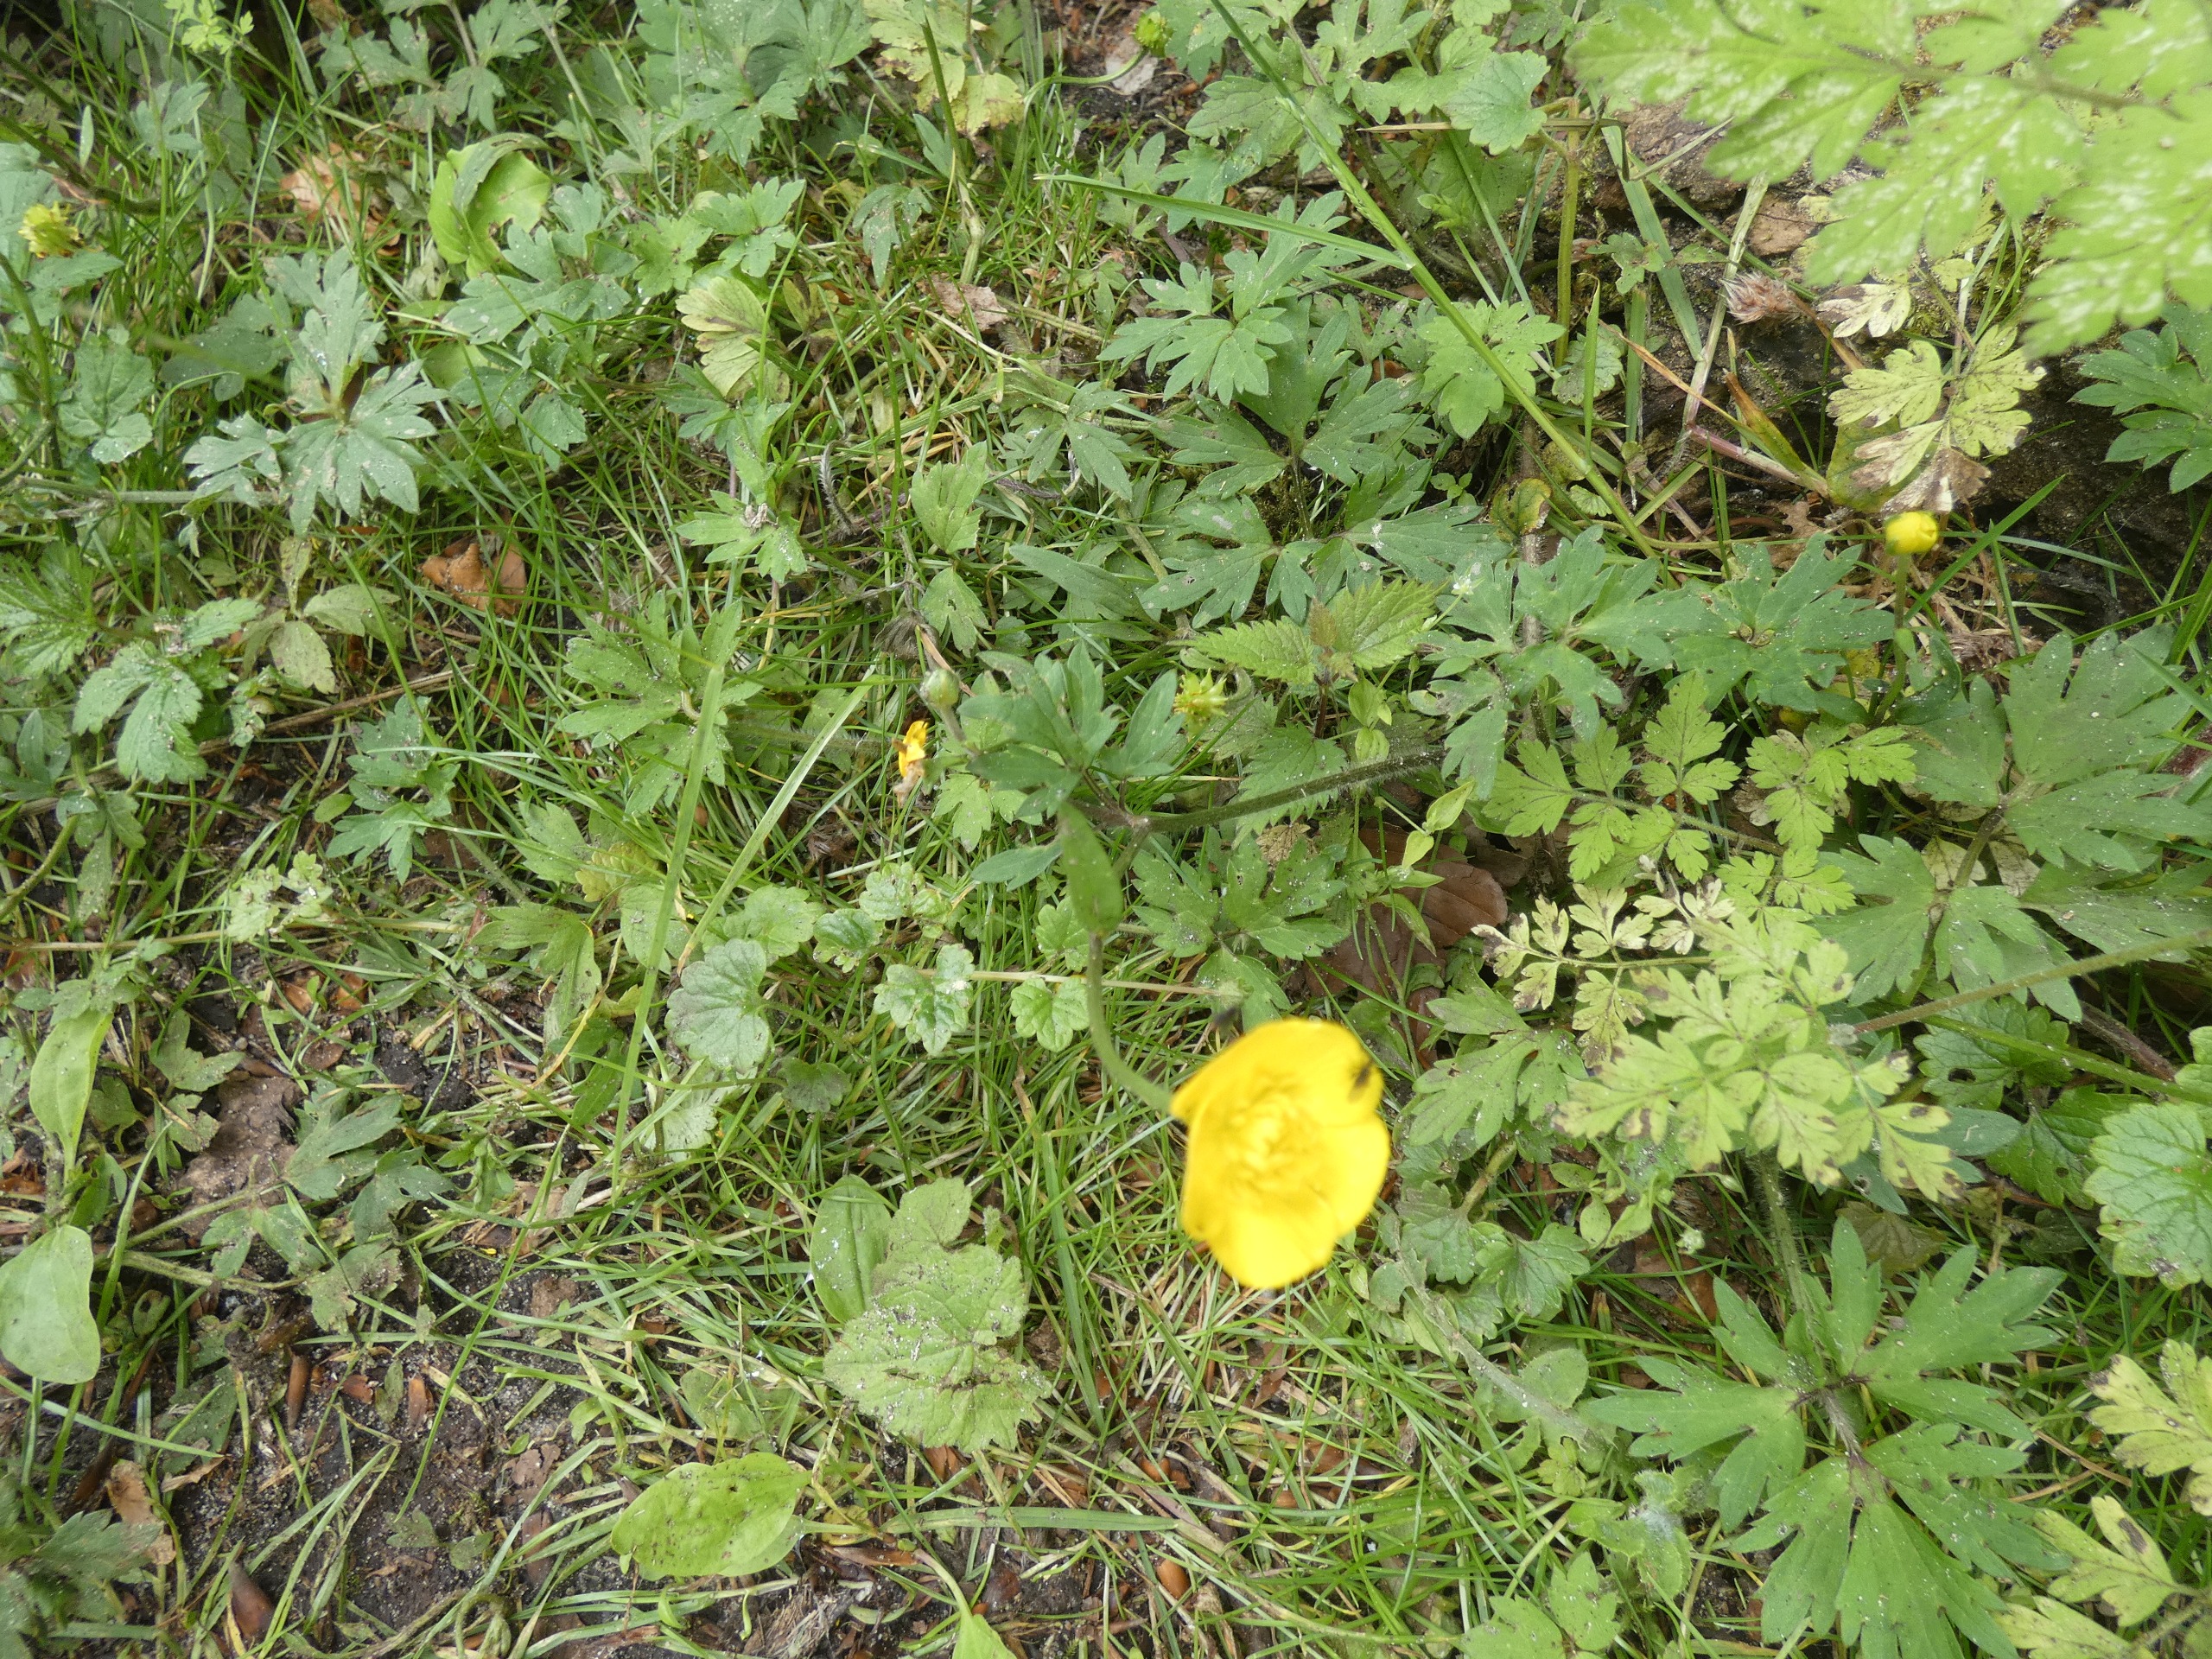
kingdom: Plantae
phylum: Tracheophyta
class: Magnoliopsida
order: Ranunculales
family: Ranunculaceae
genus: Ranunculus
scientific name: Ranunculus repens
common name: Lav ranunkel
